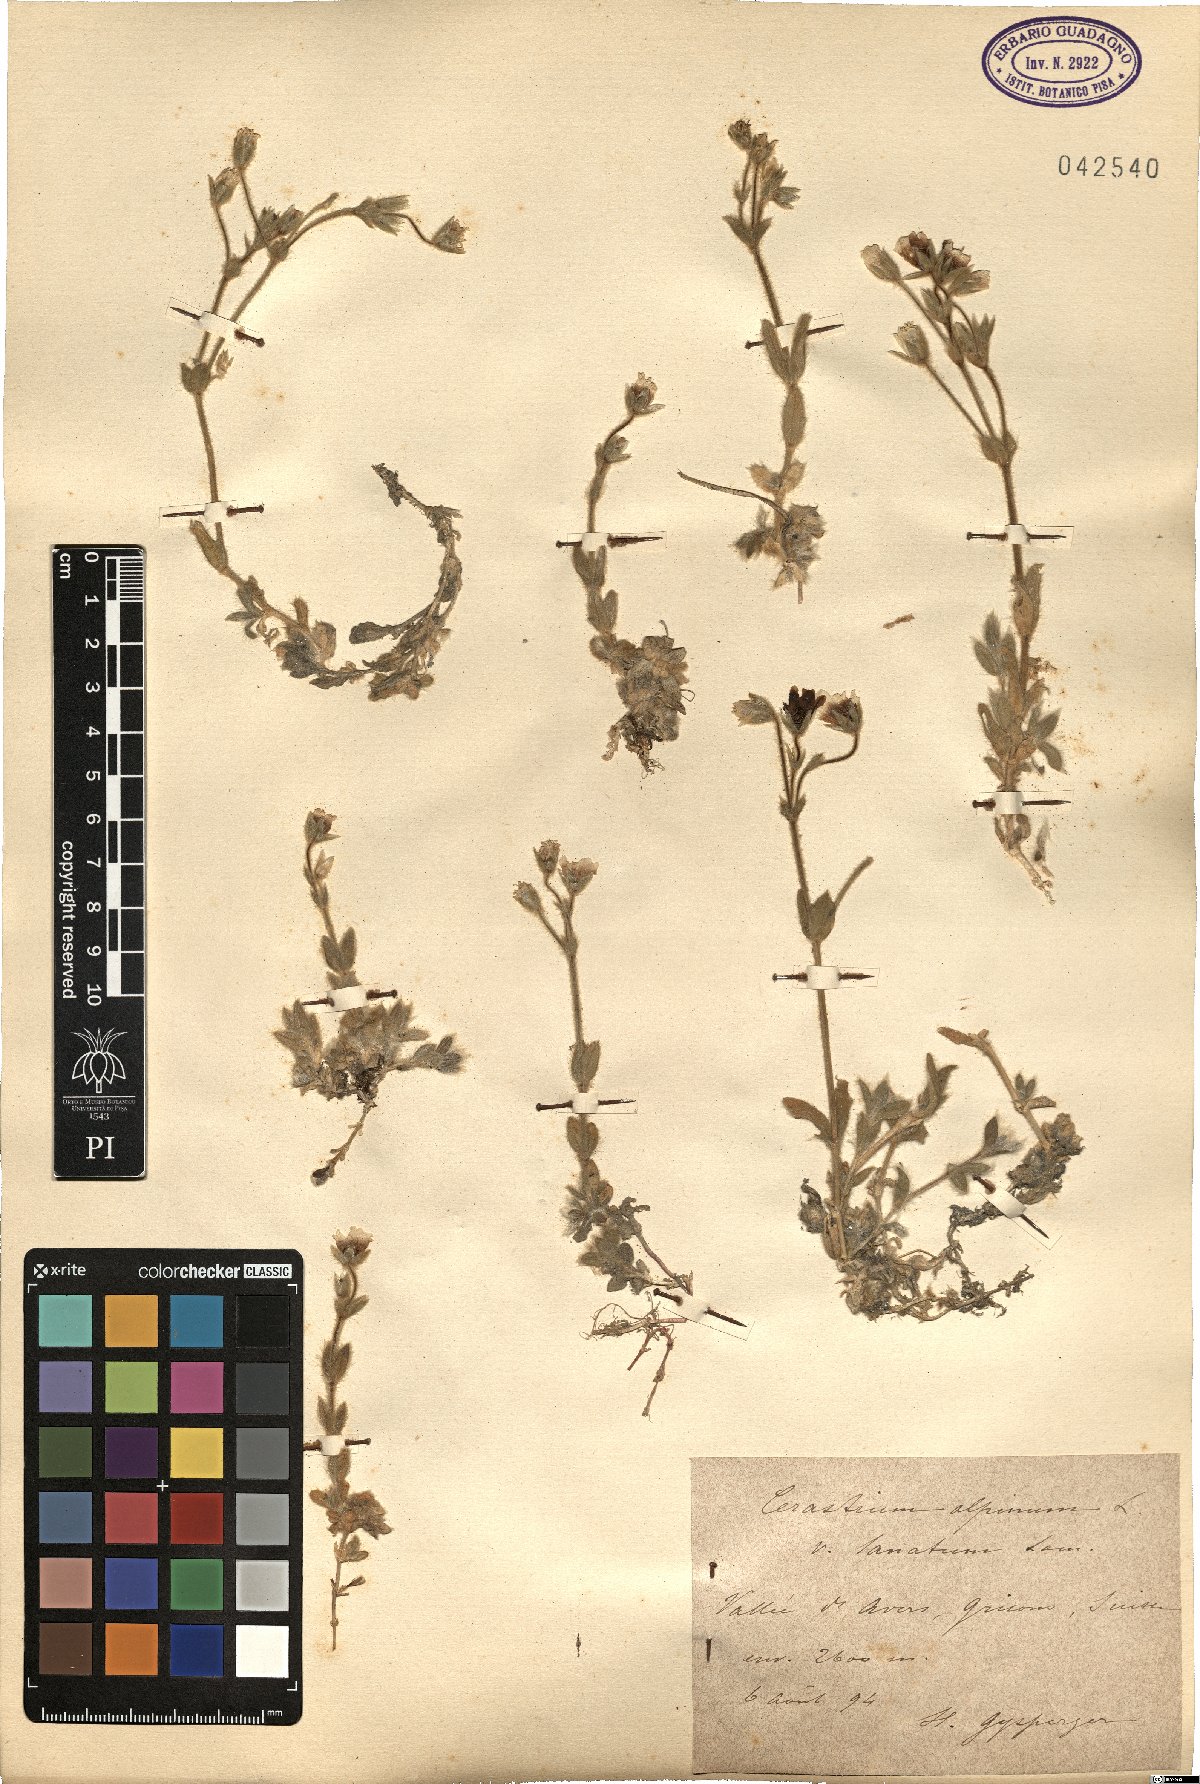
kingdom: Plantae
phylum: Tracheophyta
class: Magnoliopsida
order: Caryophyllales
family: Caryophyllaceae
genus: Cerastium
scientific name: Cerastium alpinum
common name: Alpine mouse-ear
